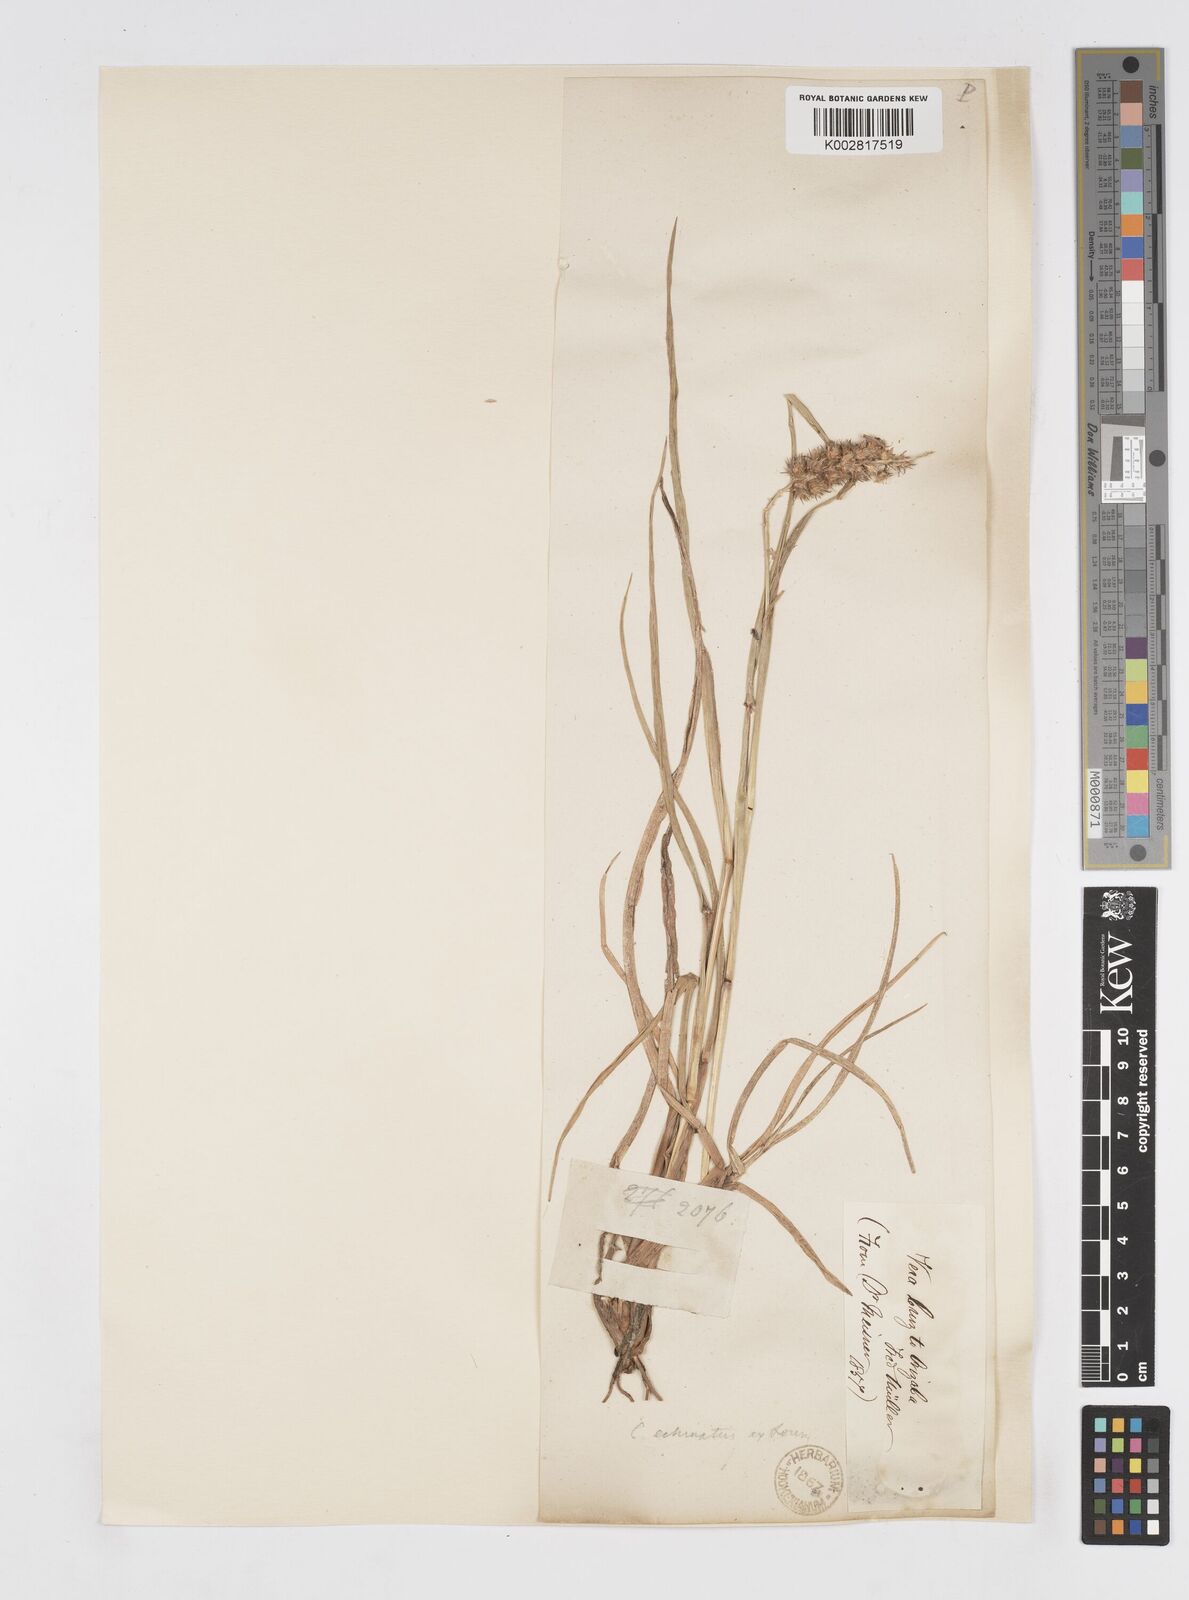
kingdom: Plantae
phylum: Tracheophyta
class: Liliopsida
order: Poales
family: Poaceae
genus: Cenchrus
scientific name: Cenchrus
